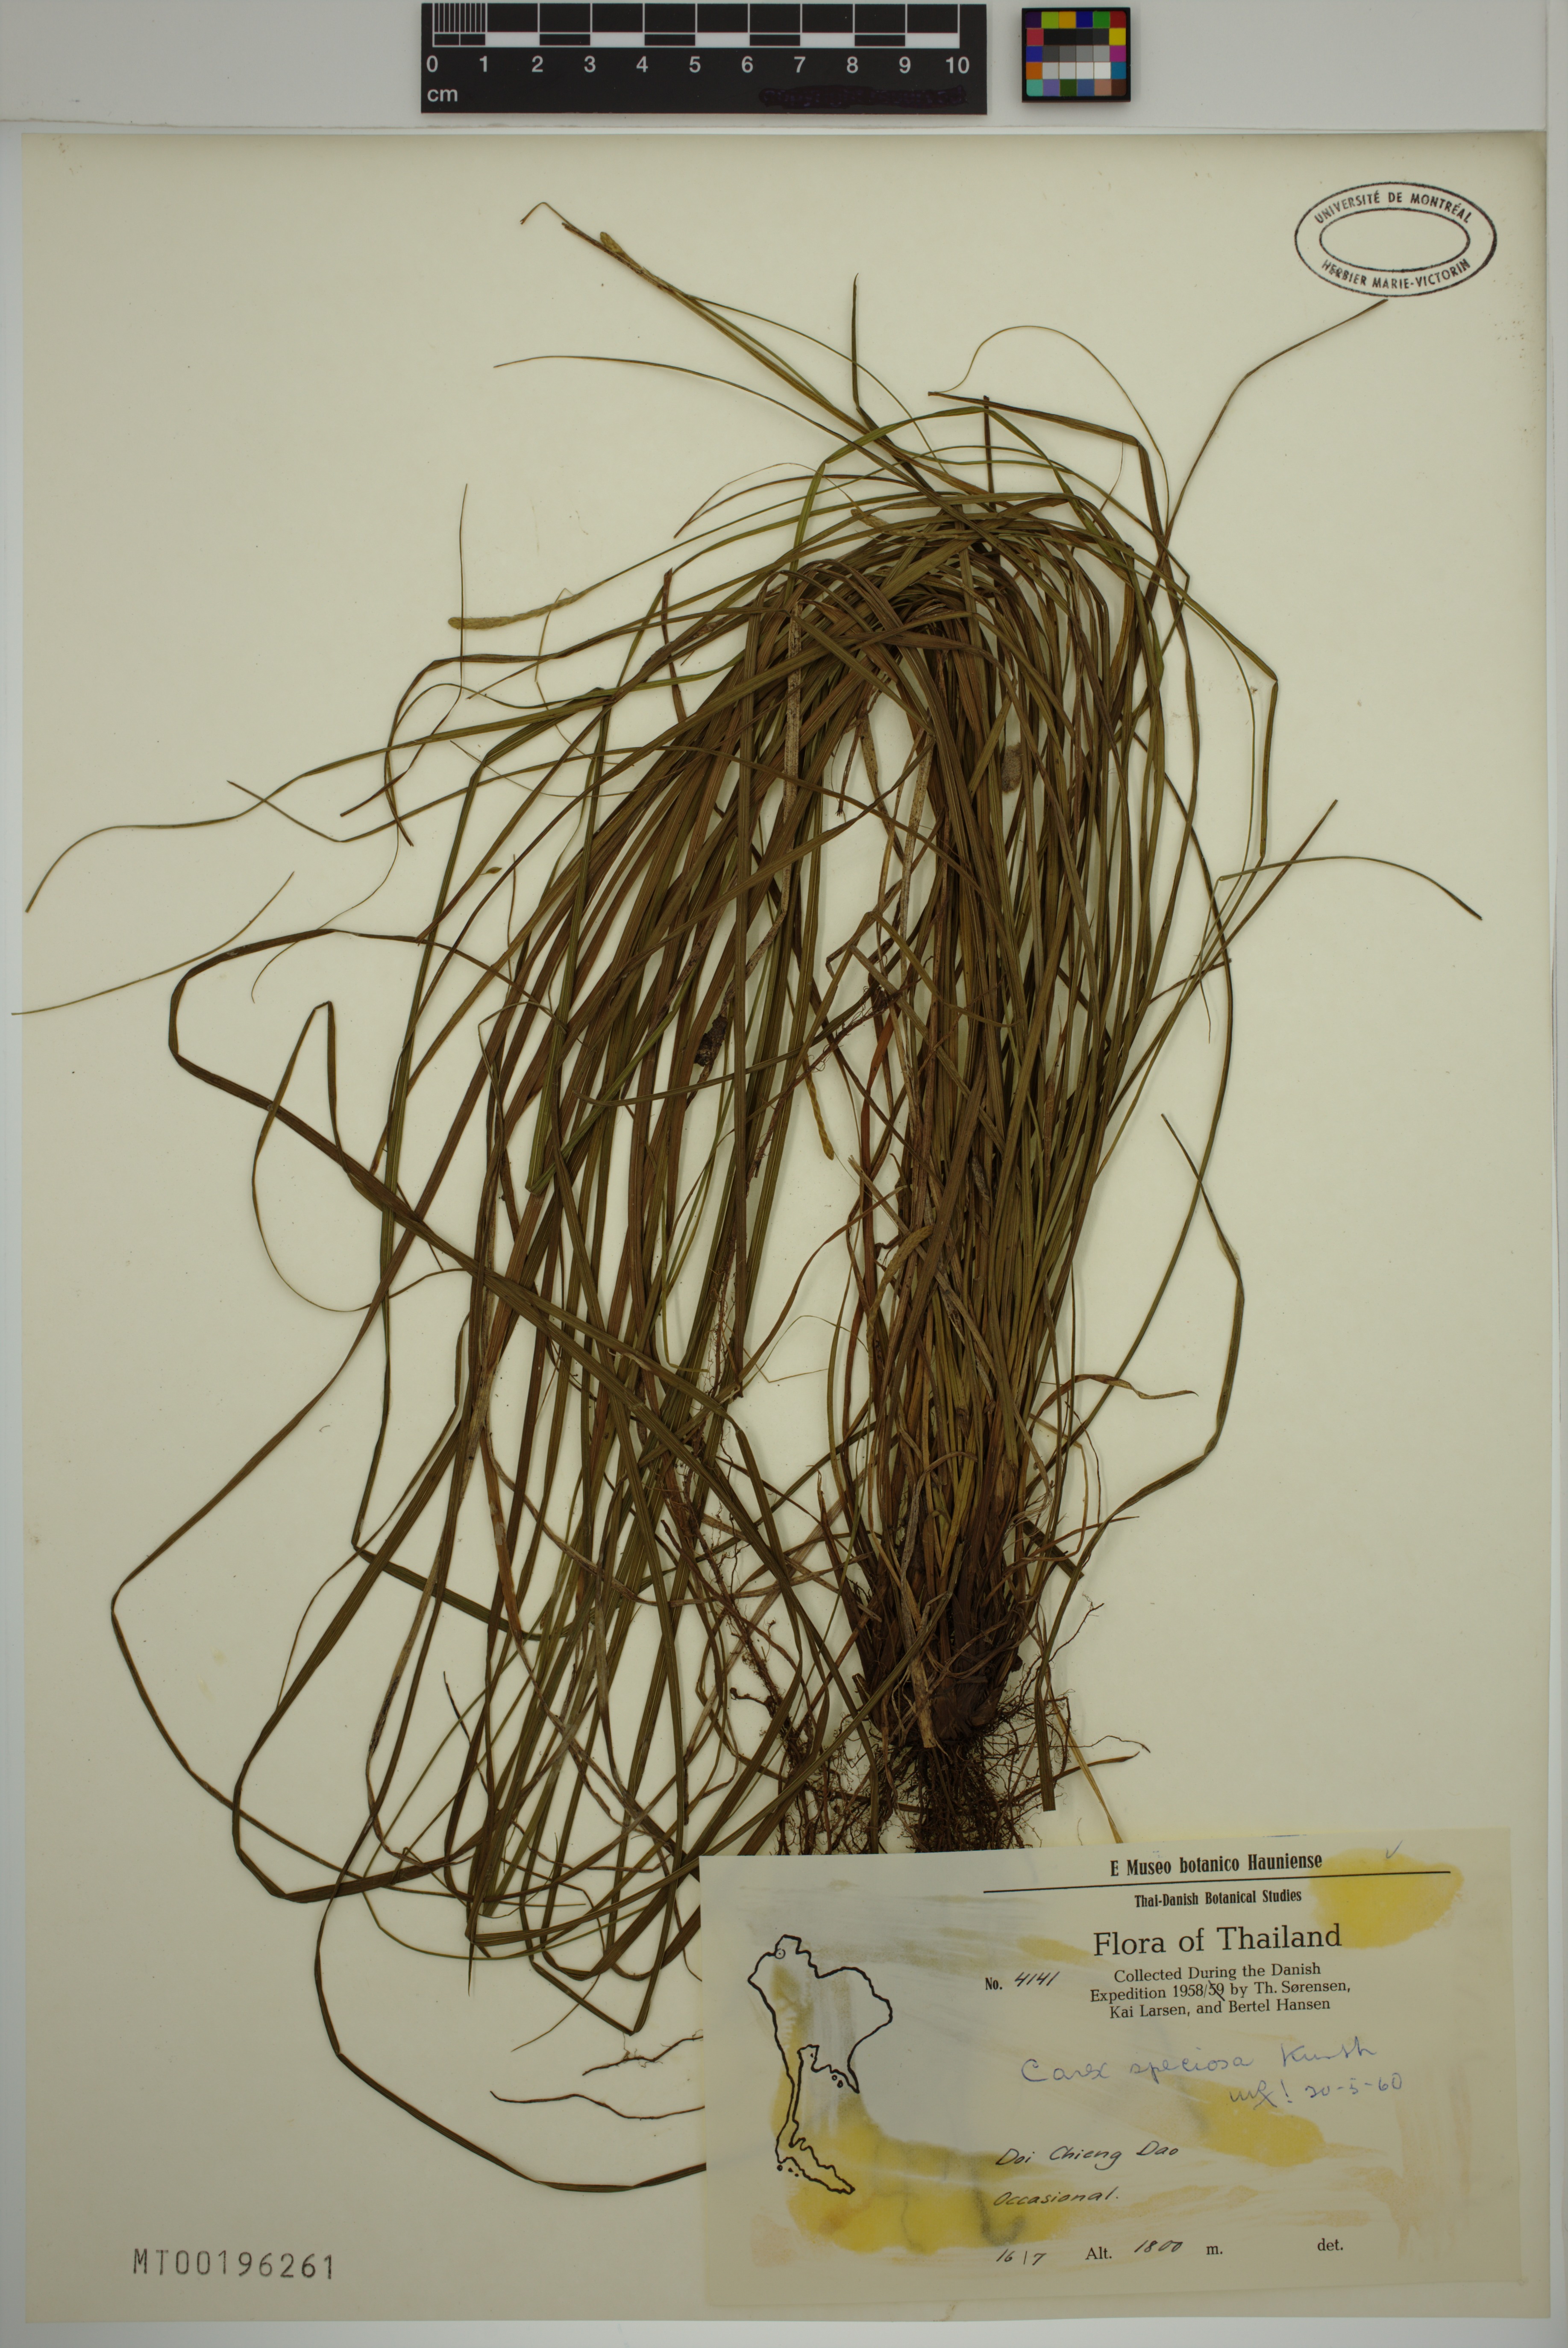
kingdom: Plantae
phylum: Tracheophyta
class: Liliopsida
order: Poales
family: Cyperaceae
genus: Carex
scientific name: Carex speciosa
